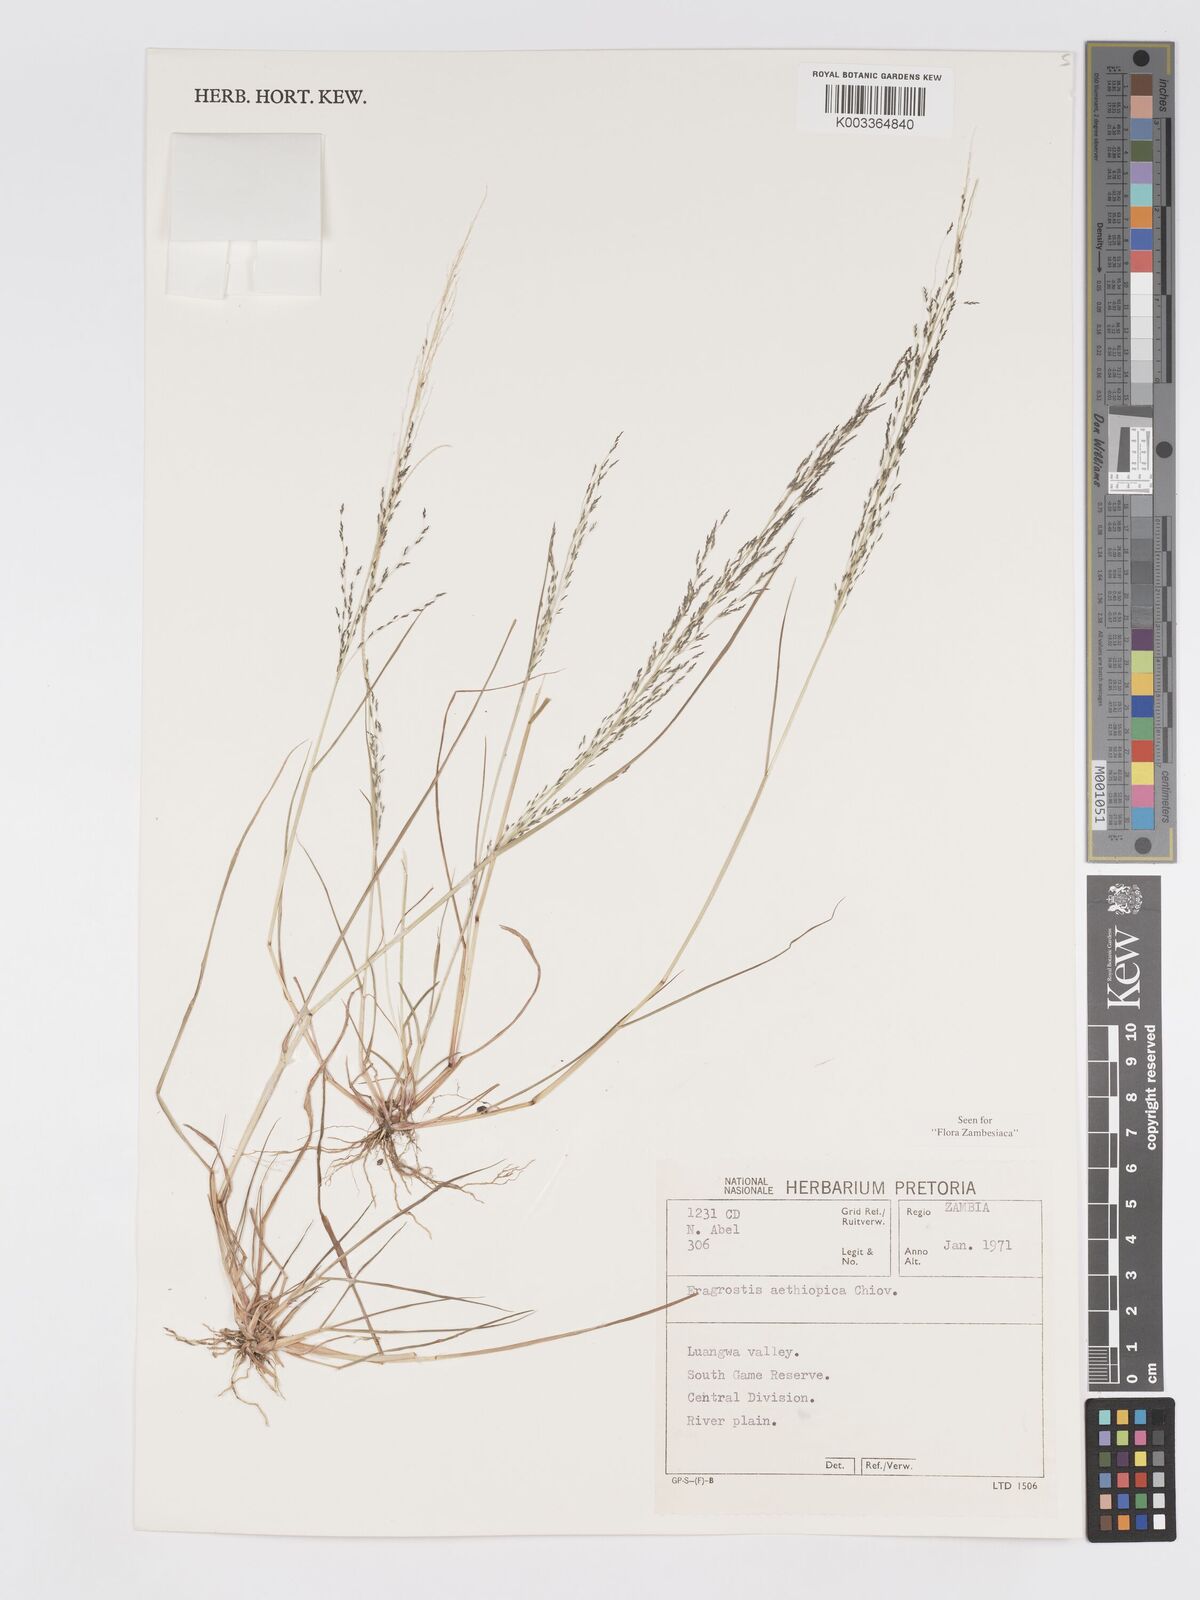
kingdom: Plantae
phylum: Tracheophyta
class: Liliopsida
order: Poales
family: Poaceae
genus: Eragrostis
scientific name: Eragrostis aethiopica
